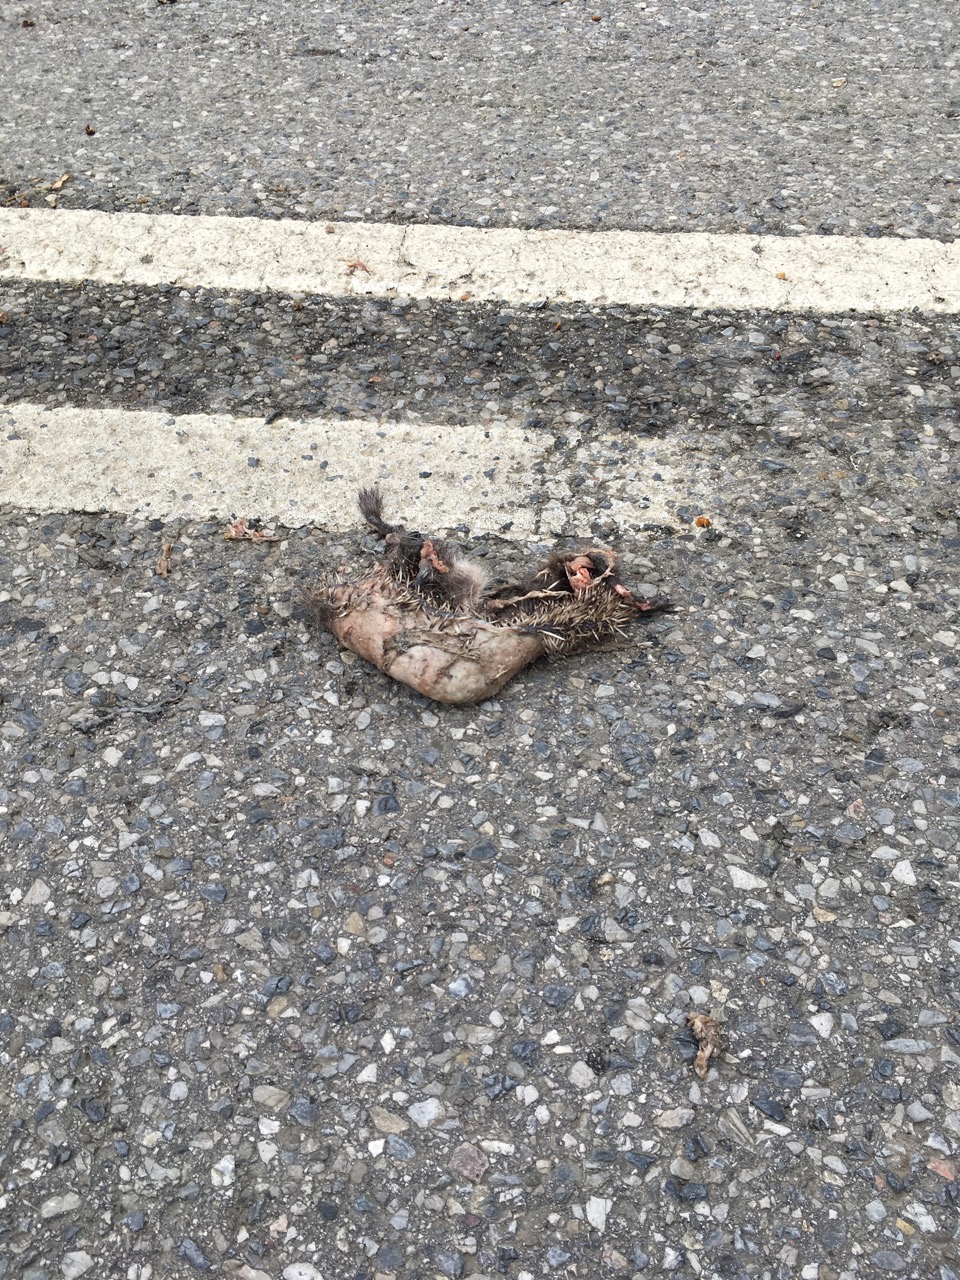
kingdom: Animalia
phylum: Chordata
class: Mammalia
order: Erinaceomorpha
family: Erinaceidae
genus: Erinaceus
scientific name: Erinaceus
